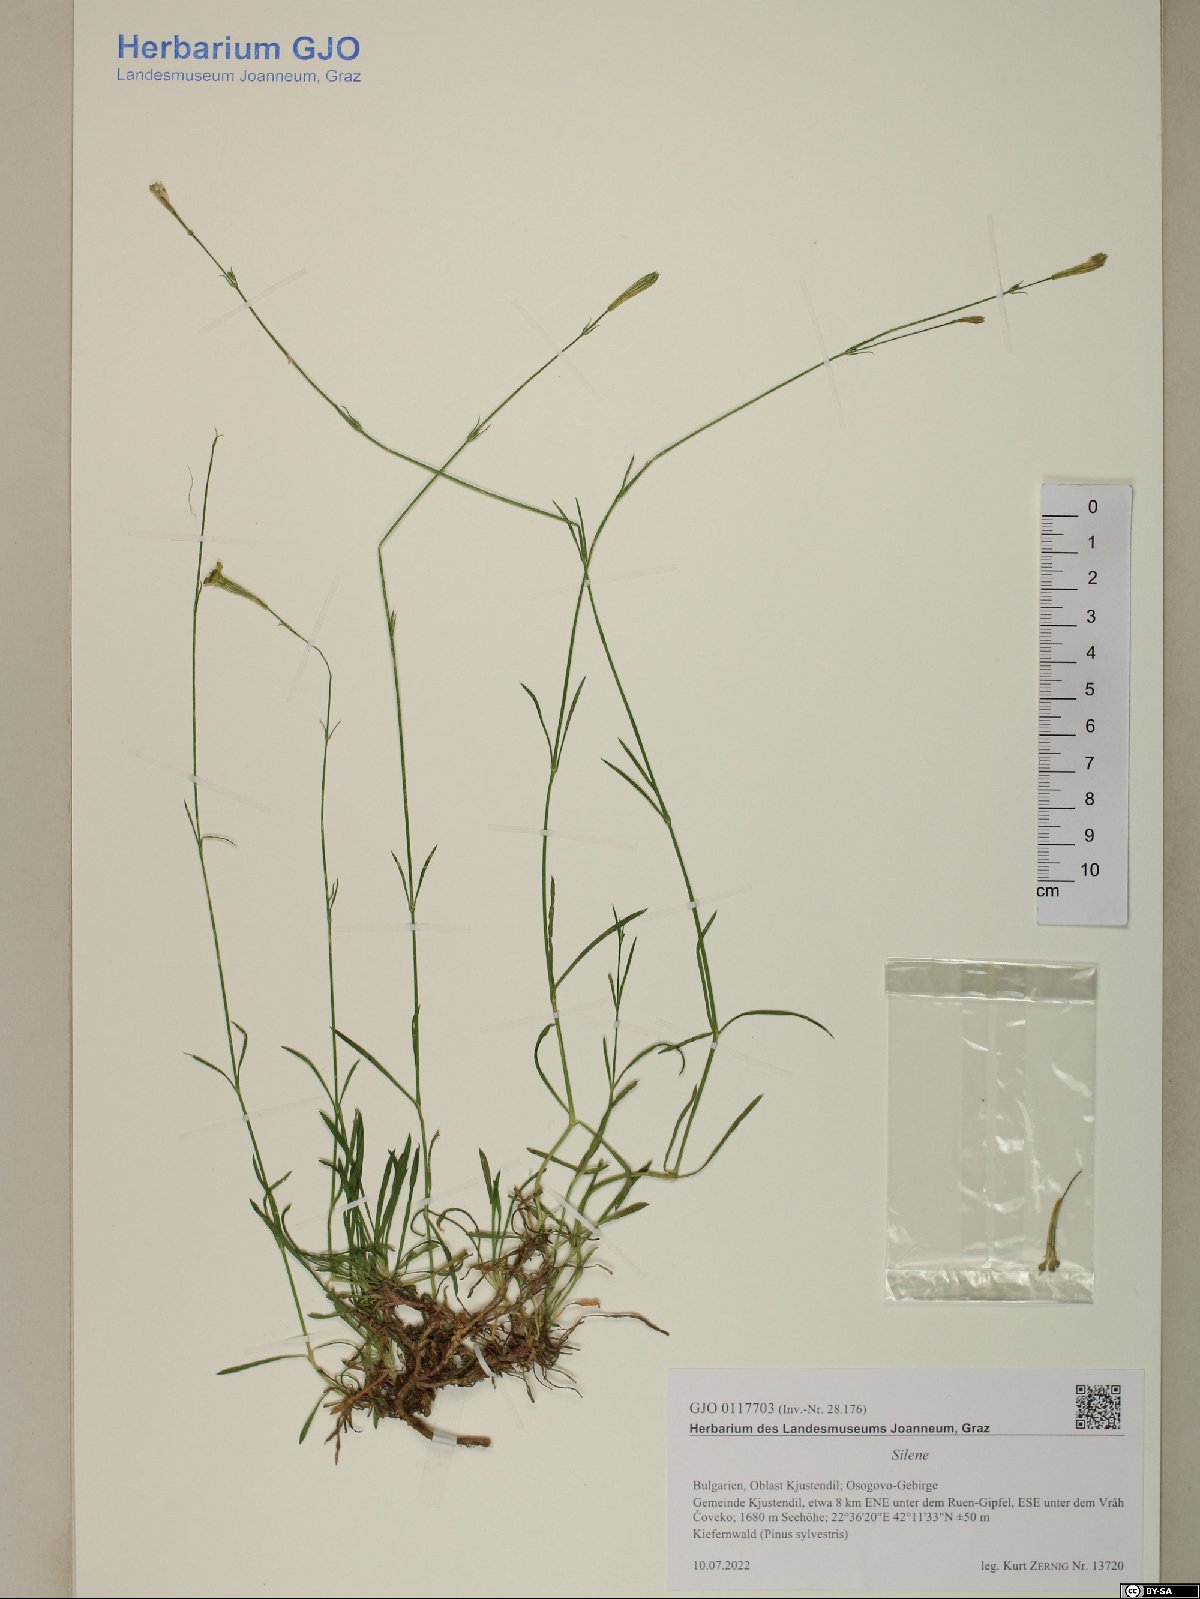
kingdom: Plantae
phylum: Tracheophyta
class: Magnoliopsida
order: Caryophyllales
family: Caryophyllaceae
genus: Silene
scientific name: Silene
